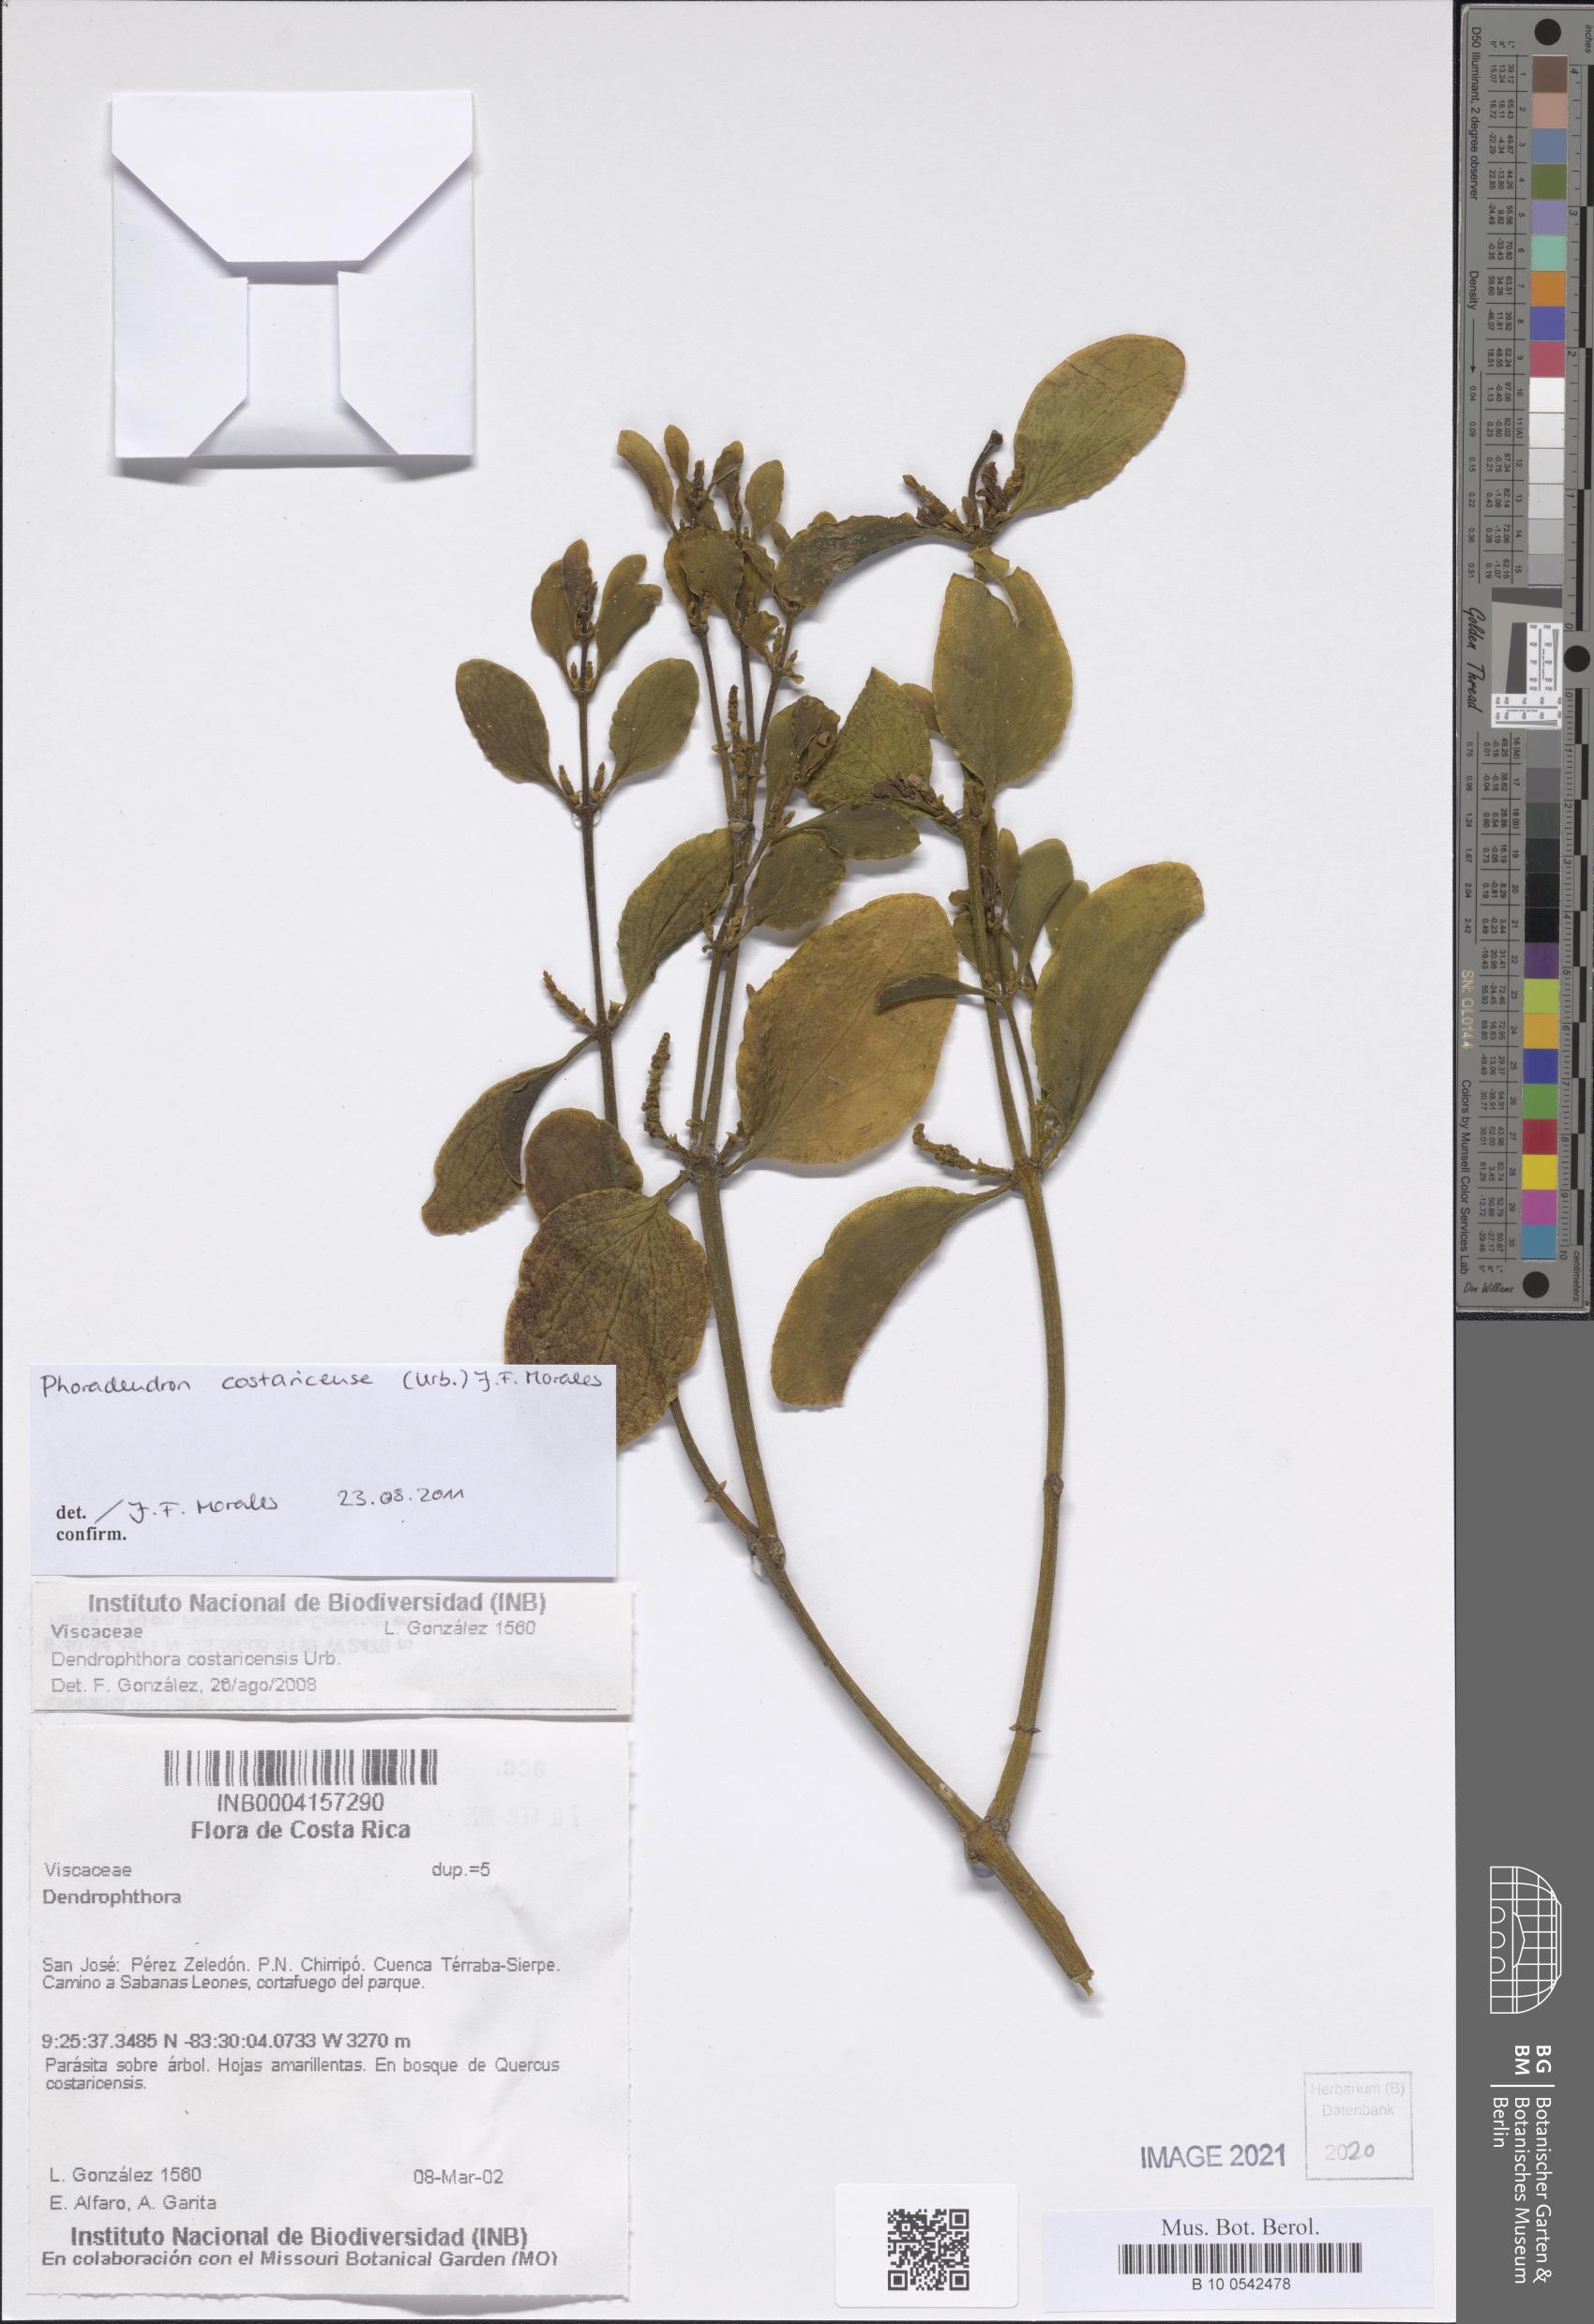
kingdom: Plantae
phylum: Tracheophyta
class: Magnoliopsida
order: Santalales
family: Viscaceae
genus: Phoradendron
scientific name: Phoradendron costaricense
